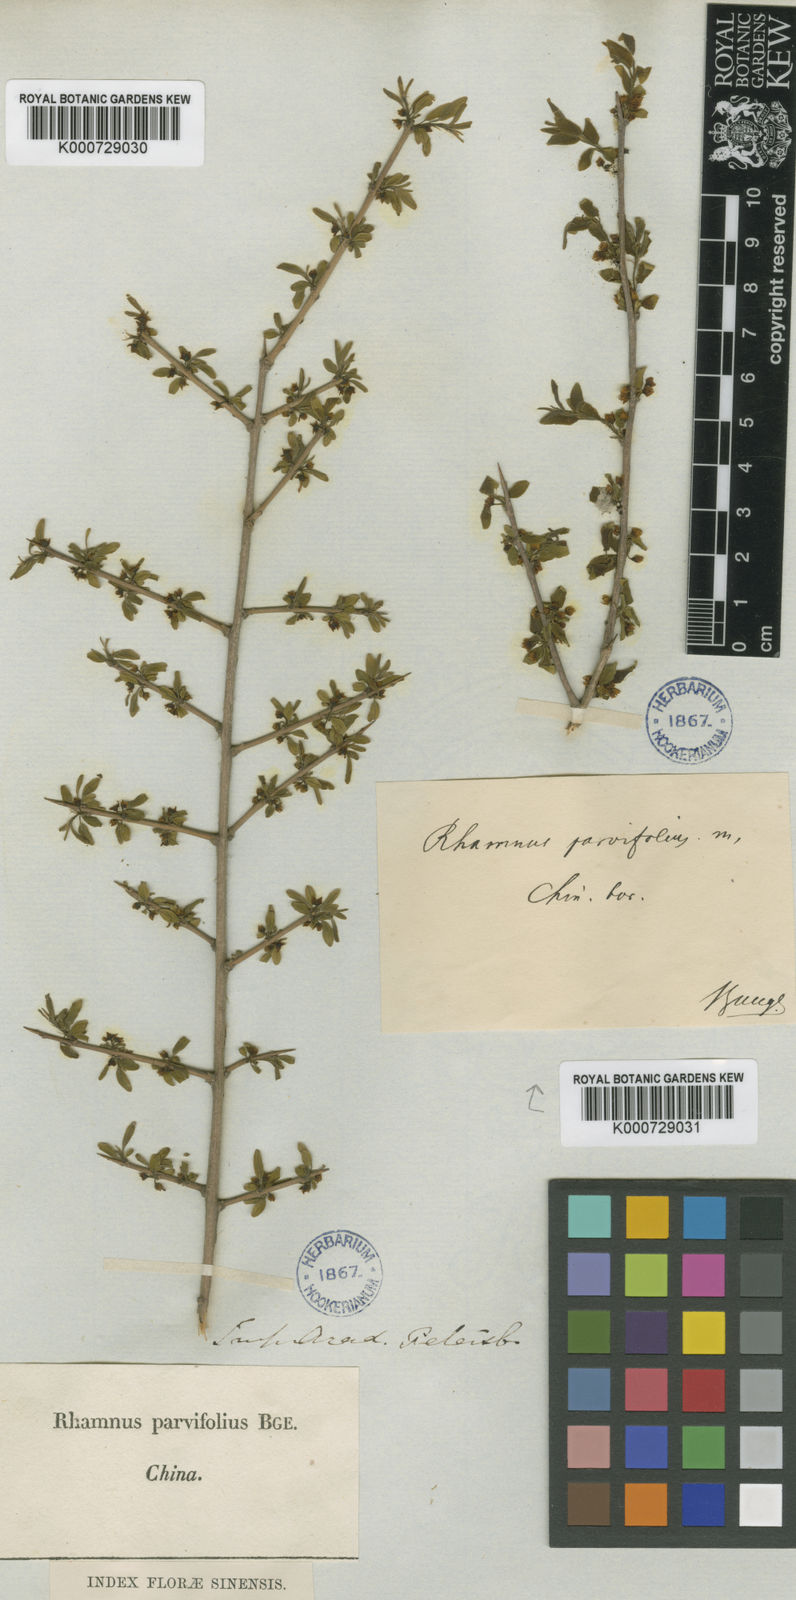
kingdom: Plantae
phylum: Tracheophyta
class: Magnoliopsida
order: Rosales
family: Rhamnaceae
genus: Rhamnus
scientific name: Rhamnus parvifolia
